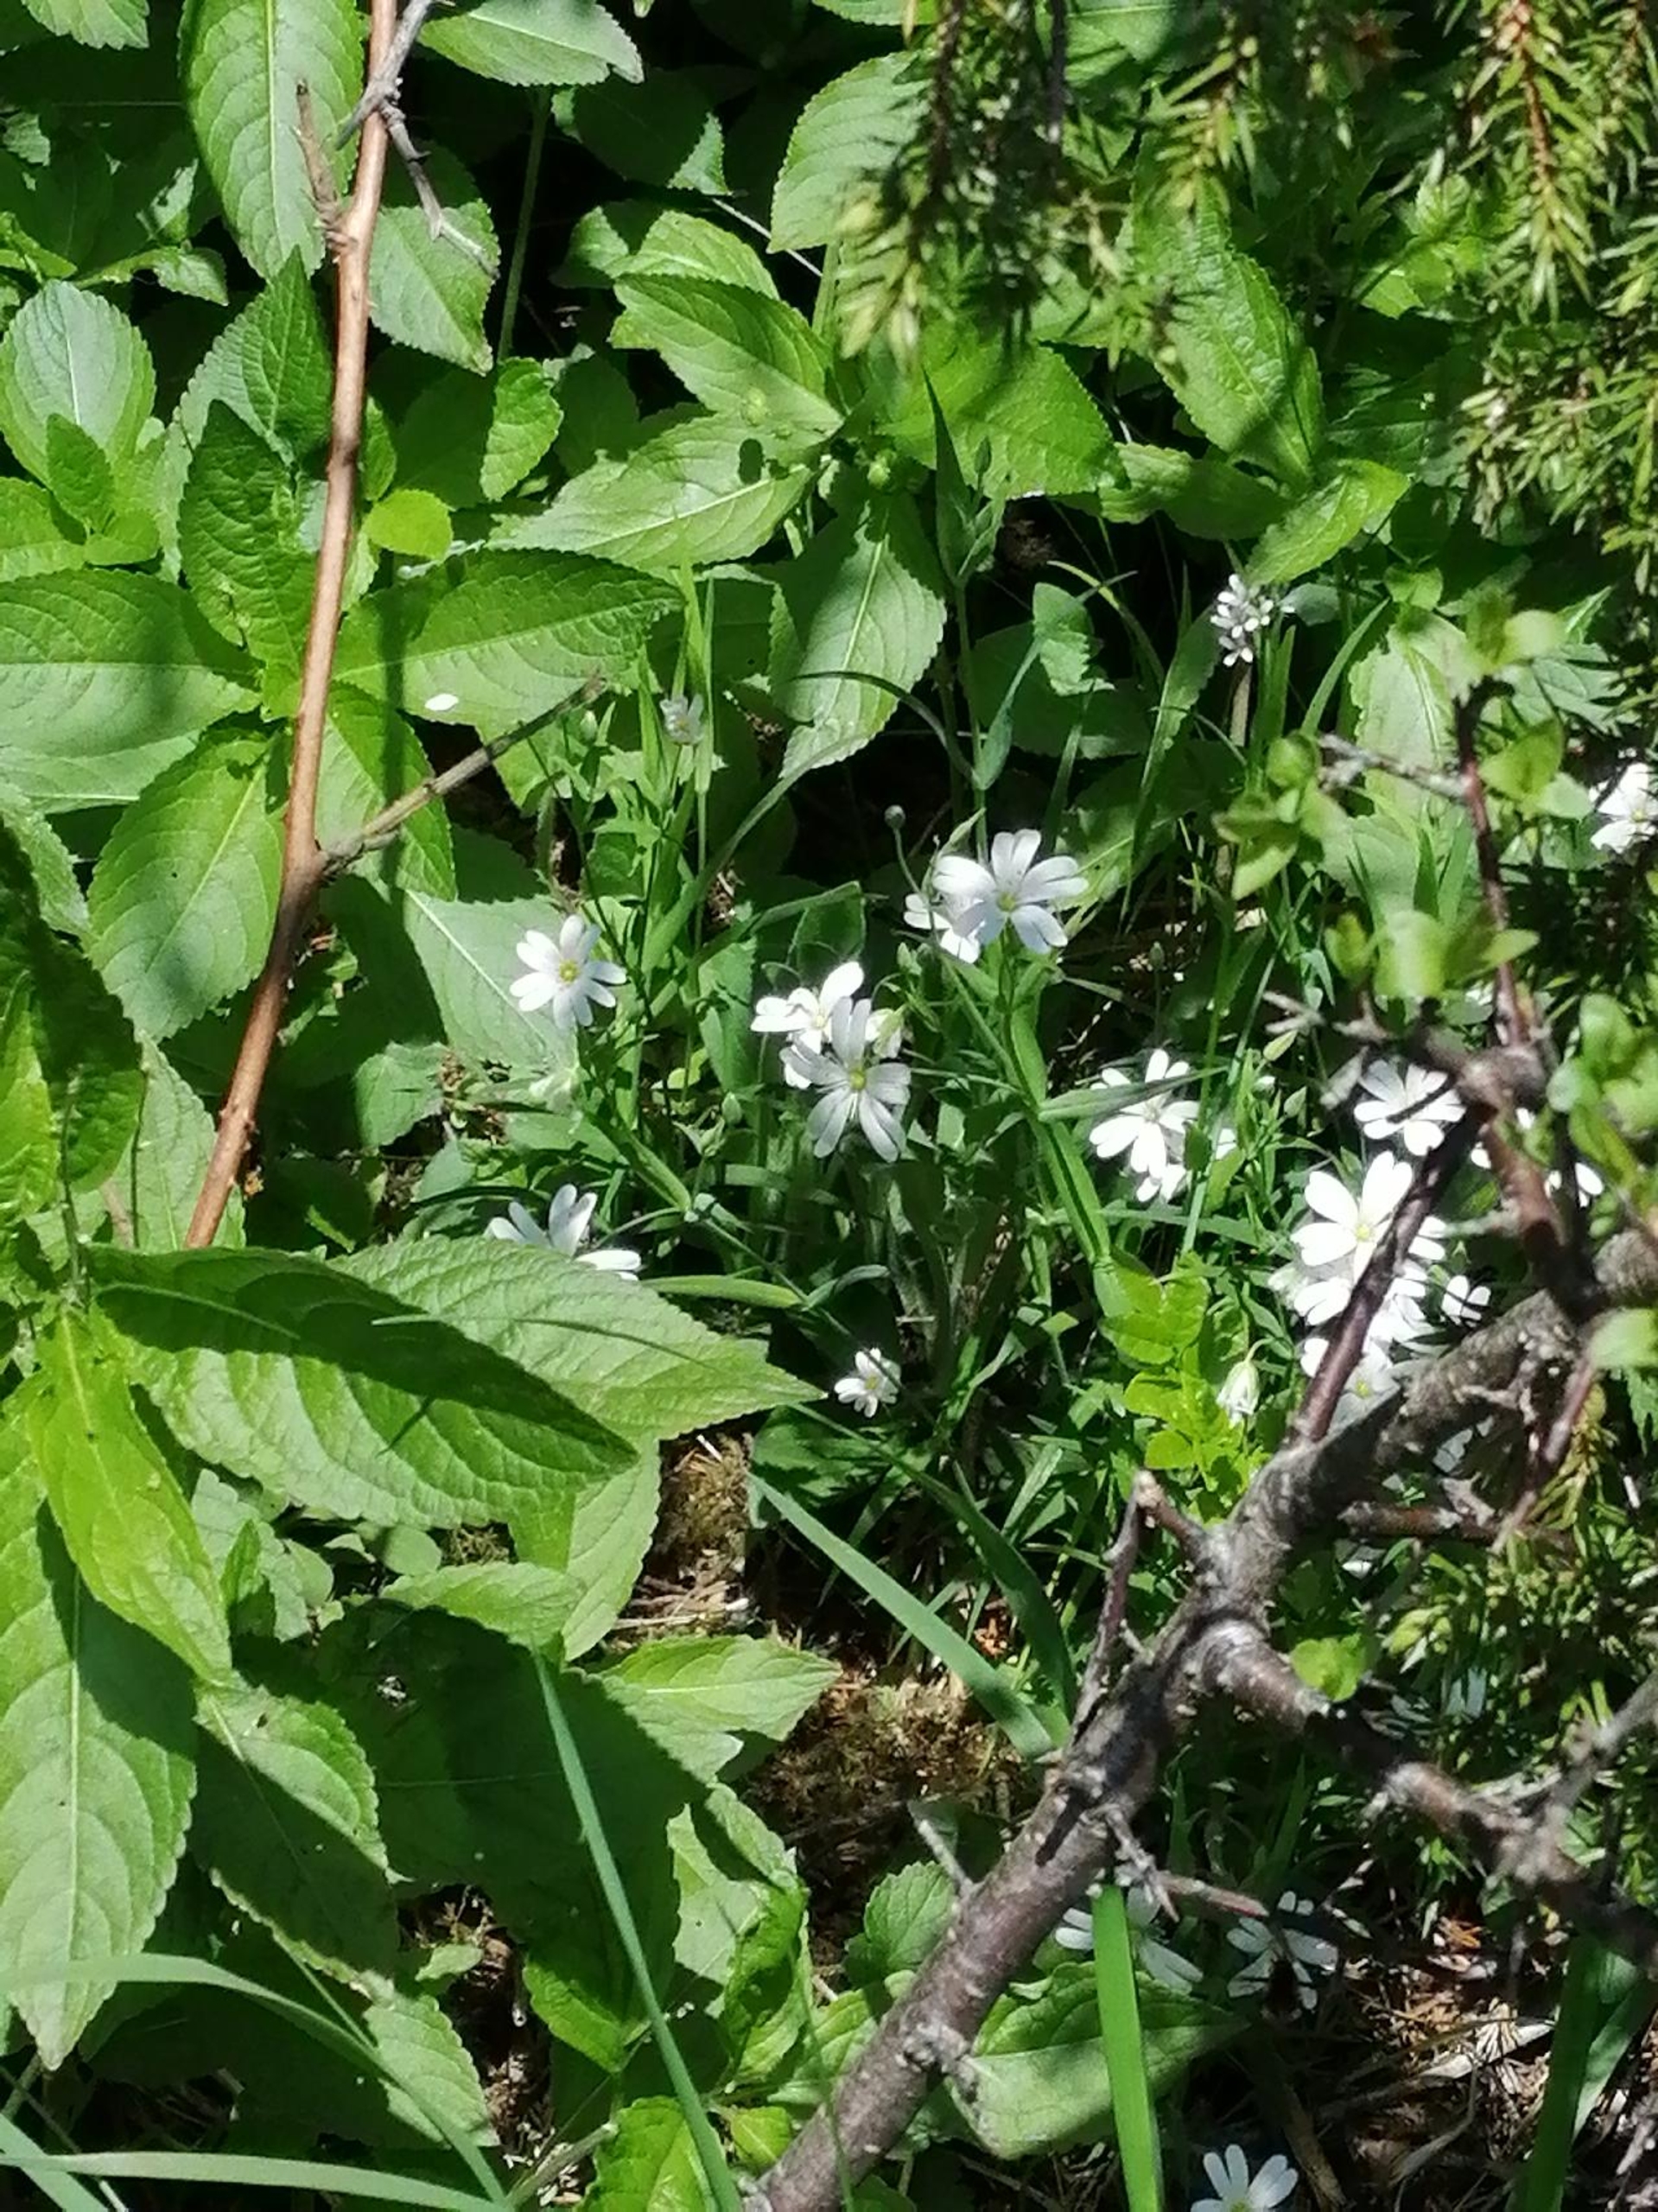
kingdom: Plantae
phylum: Tracheophyta
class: Magnoliopsida
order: Caryophyllales
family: Caryophyllaceae
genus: Rabelera
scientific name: Rabelera holostea
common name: Stor fladstjerne
